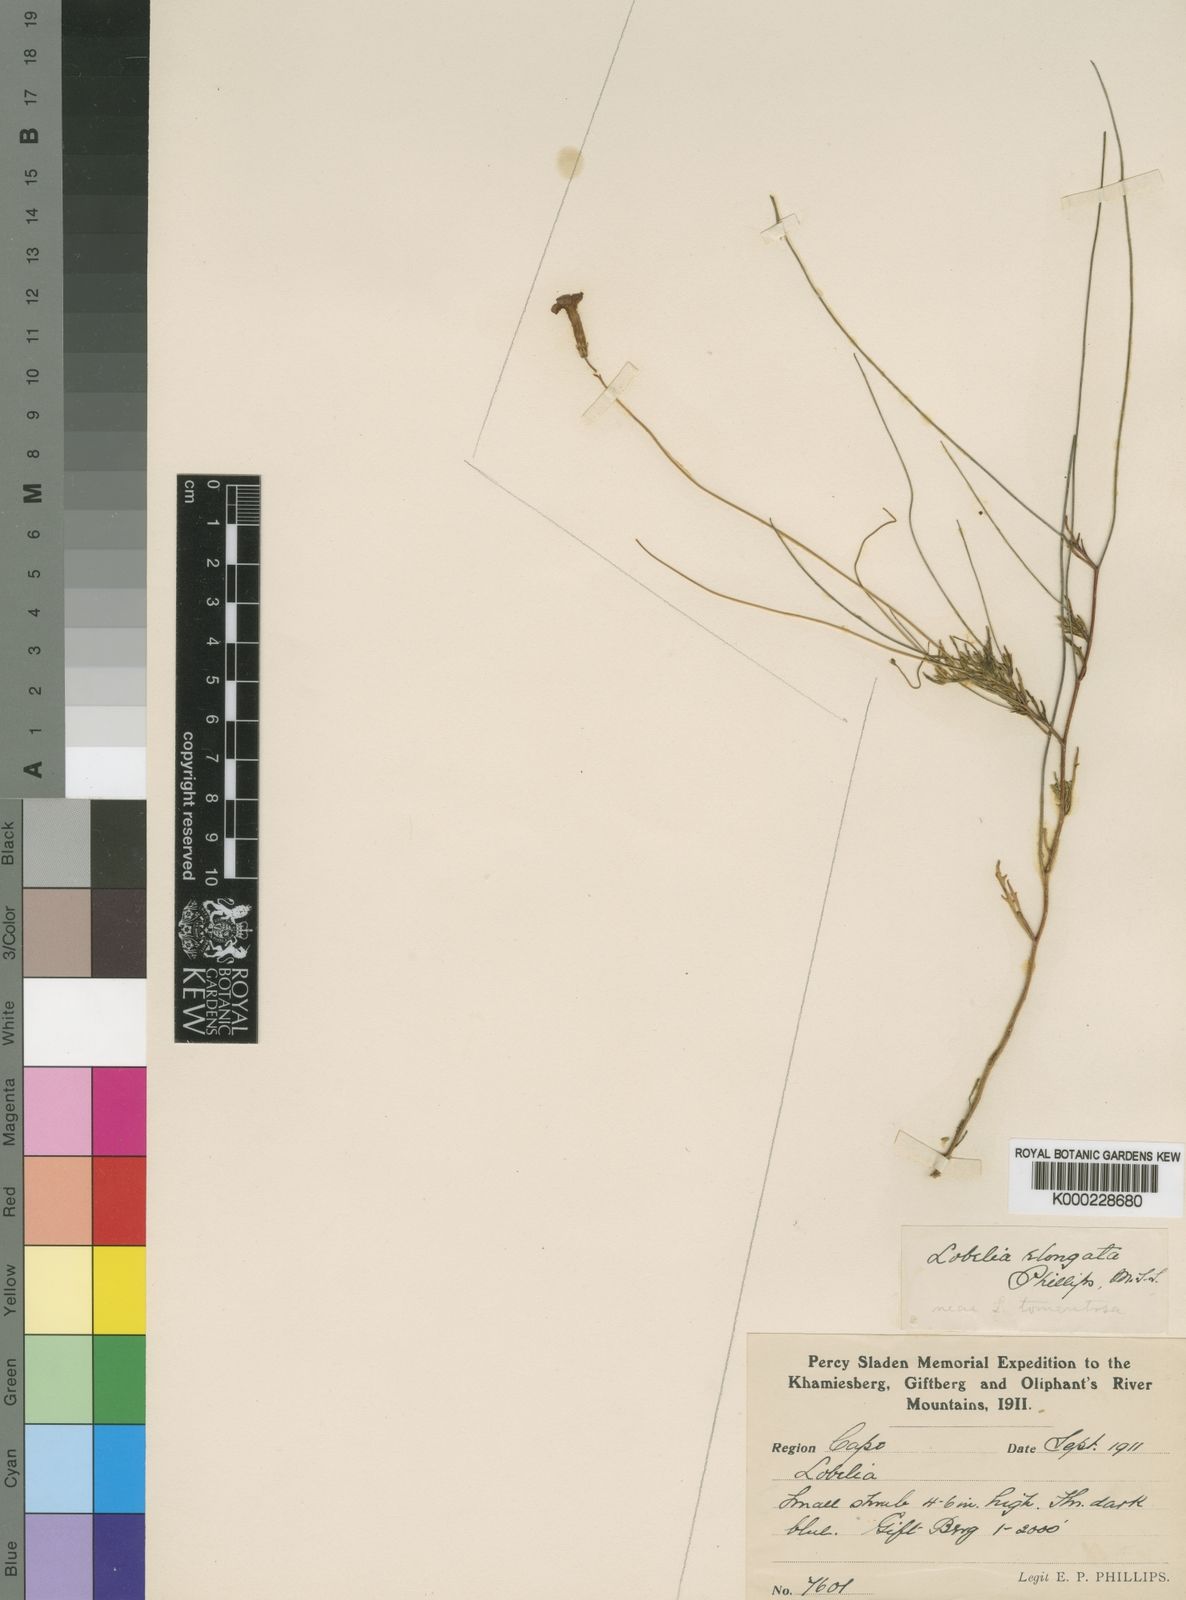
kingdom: Plantae
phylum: Tracheophyta
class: Magnoliopsida
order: Asterales
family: Campanulaceae
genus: Lobelia
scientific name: Lobelia elongata
